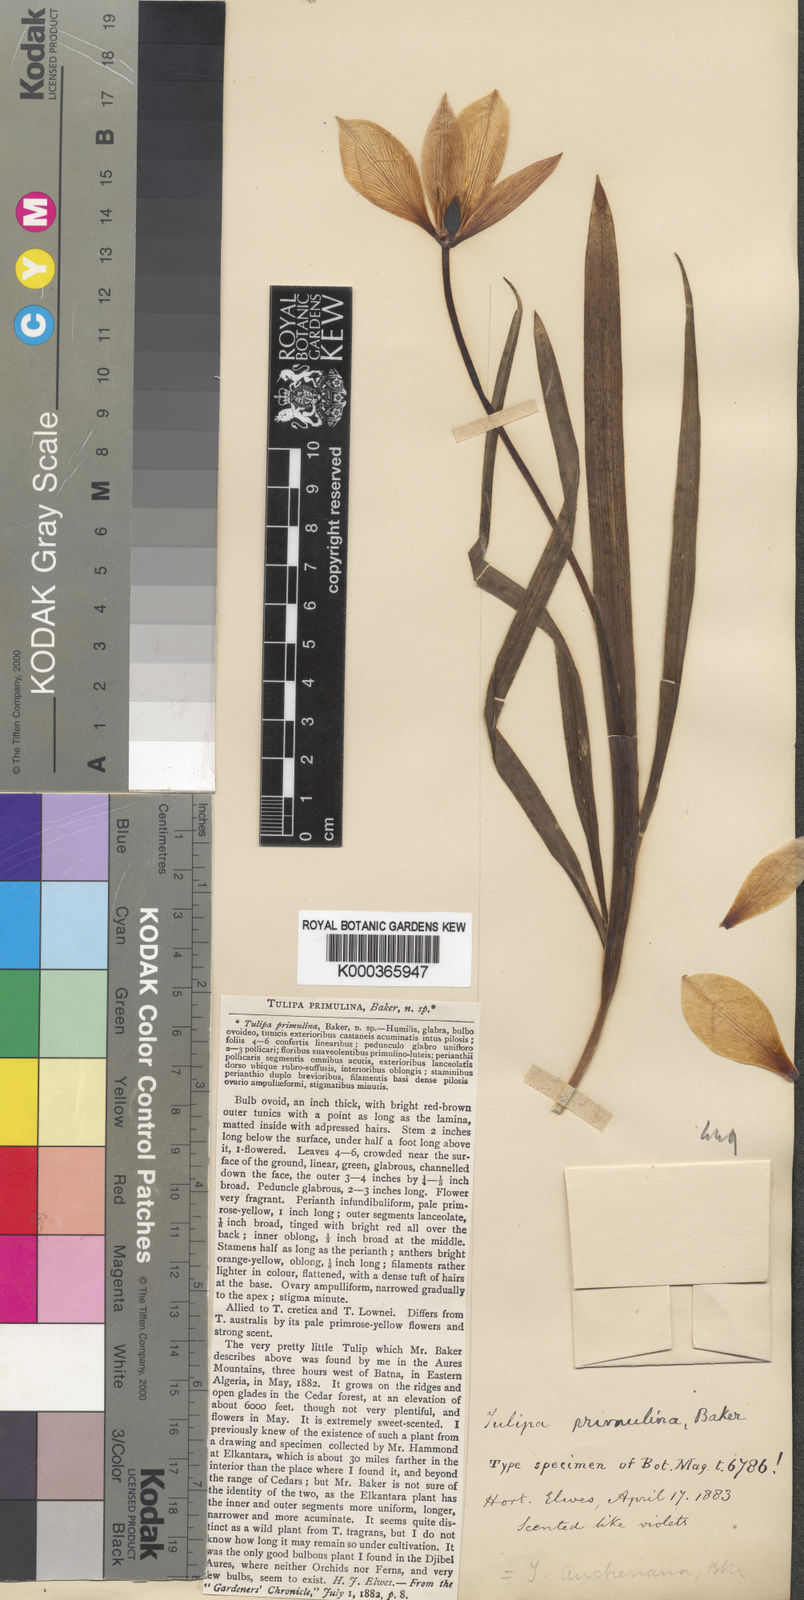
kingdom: Plantae
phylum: Tracheophyta
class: Liliopsida
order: Liliales
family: Liliaceae
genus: Tulipa
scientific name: Tulipa sylvestris
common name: Wild tulip
